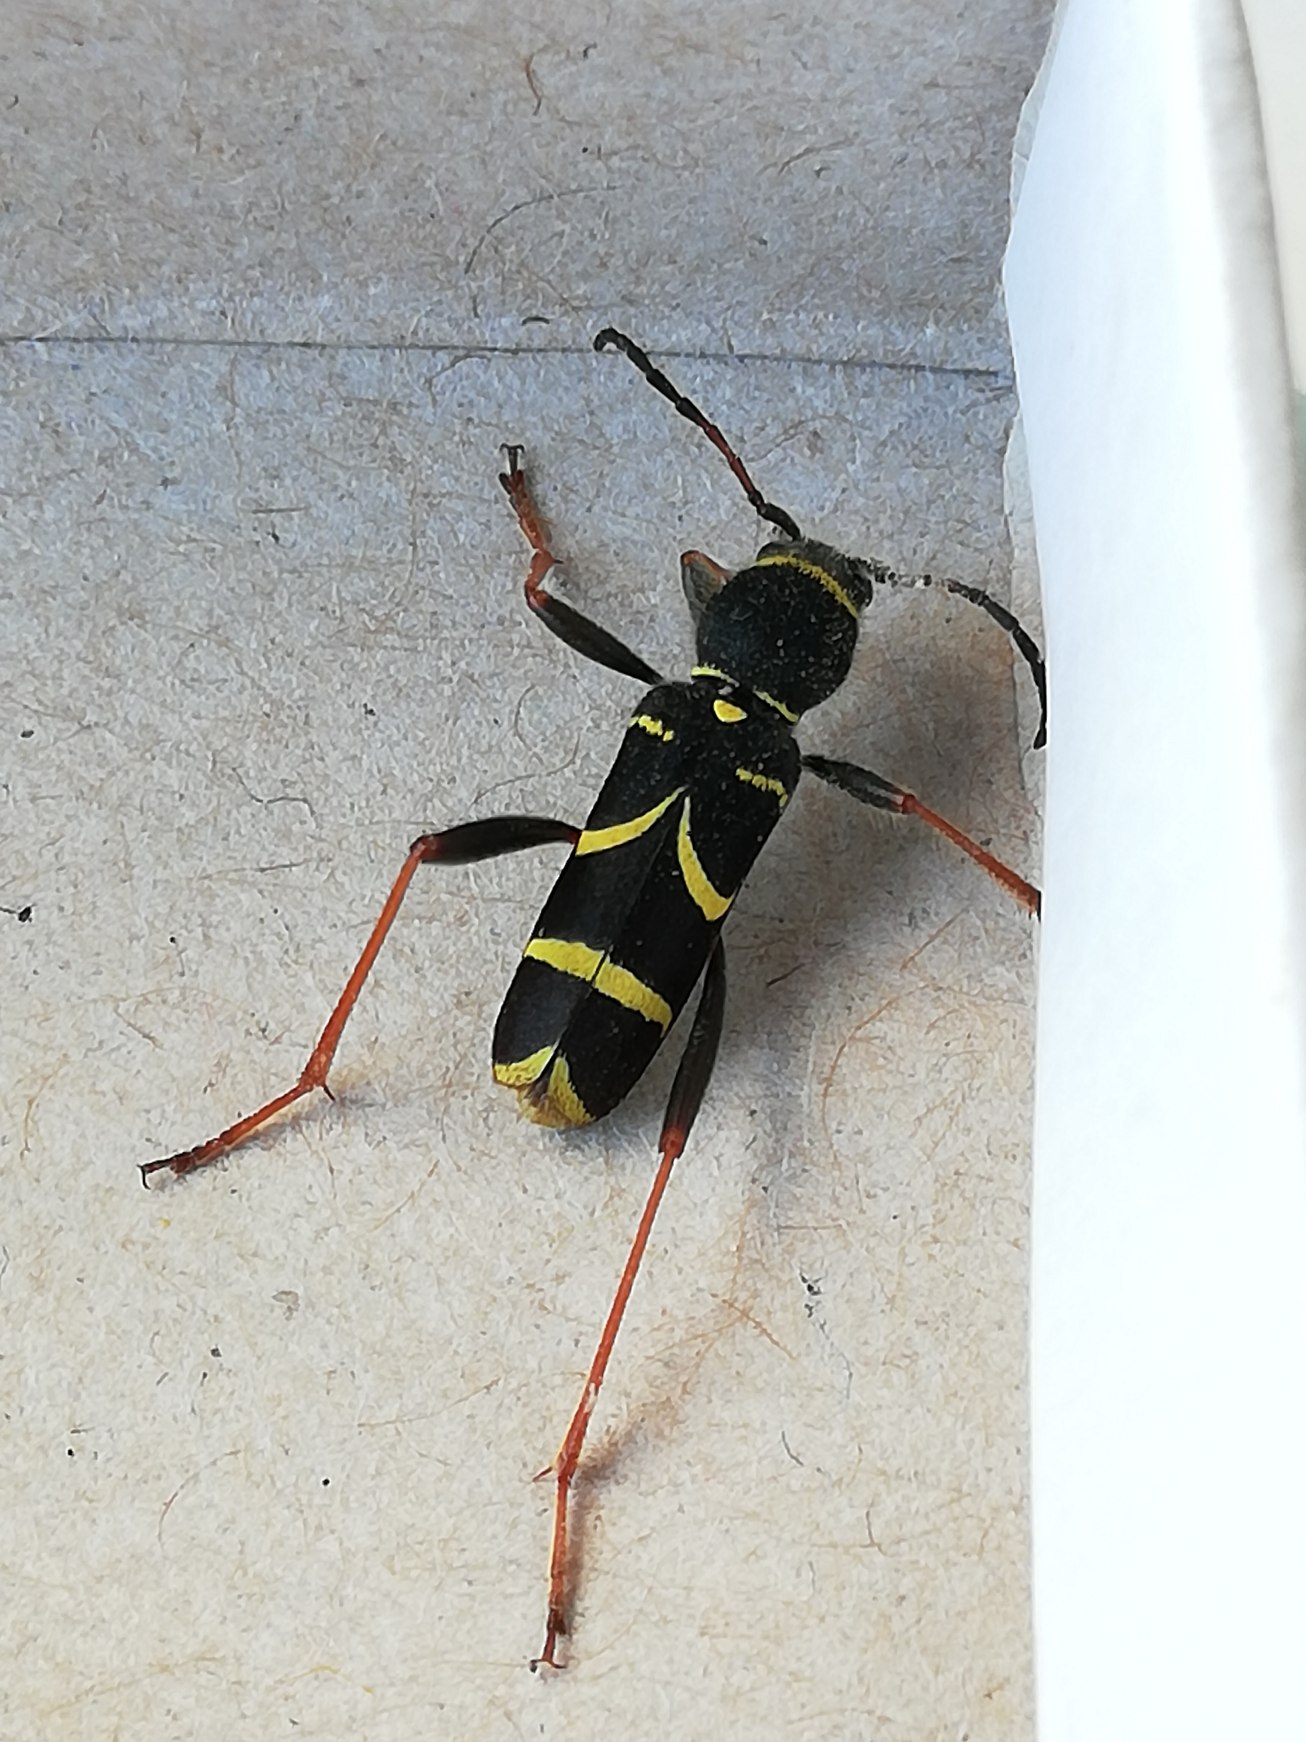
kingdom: Animalia
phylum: Arthropoda
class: Insecta
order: Coleoptera
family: Cerambycidae
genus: Clytus
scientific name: Clytus arietis
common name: Lille hvepsebuk
